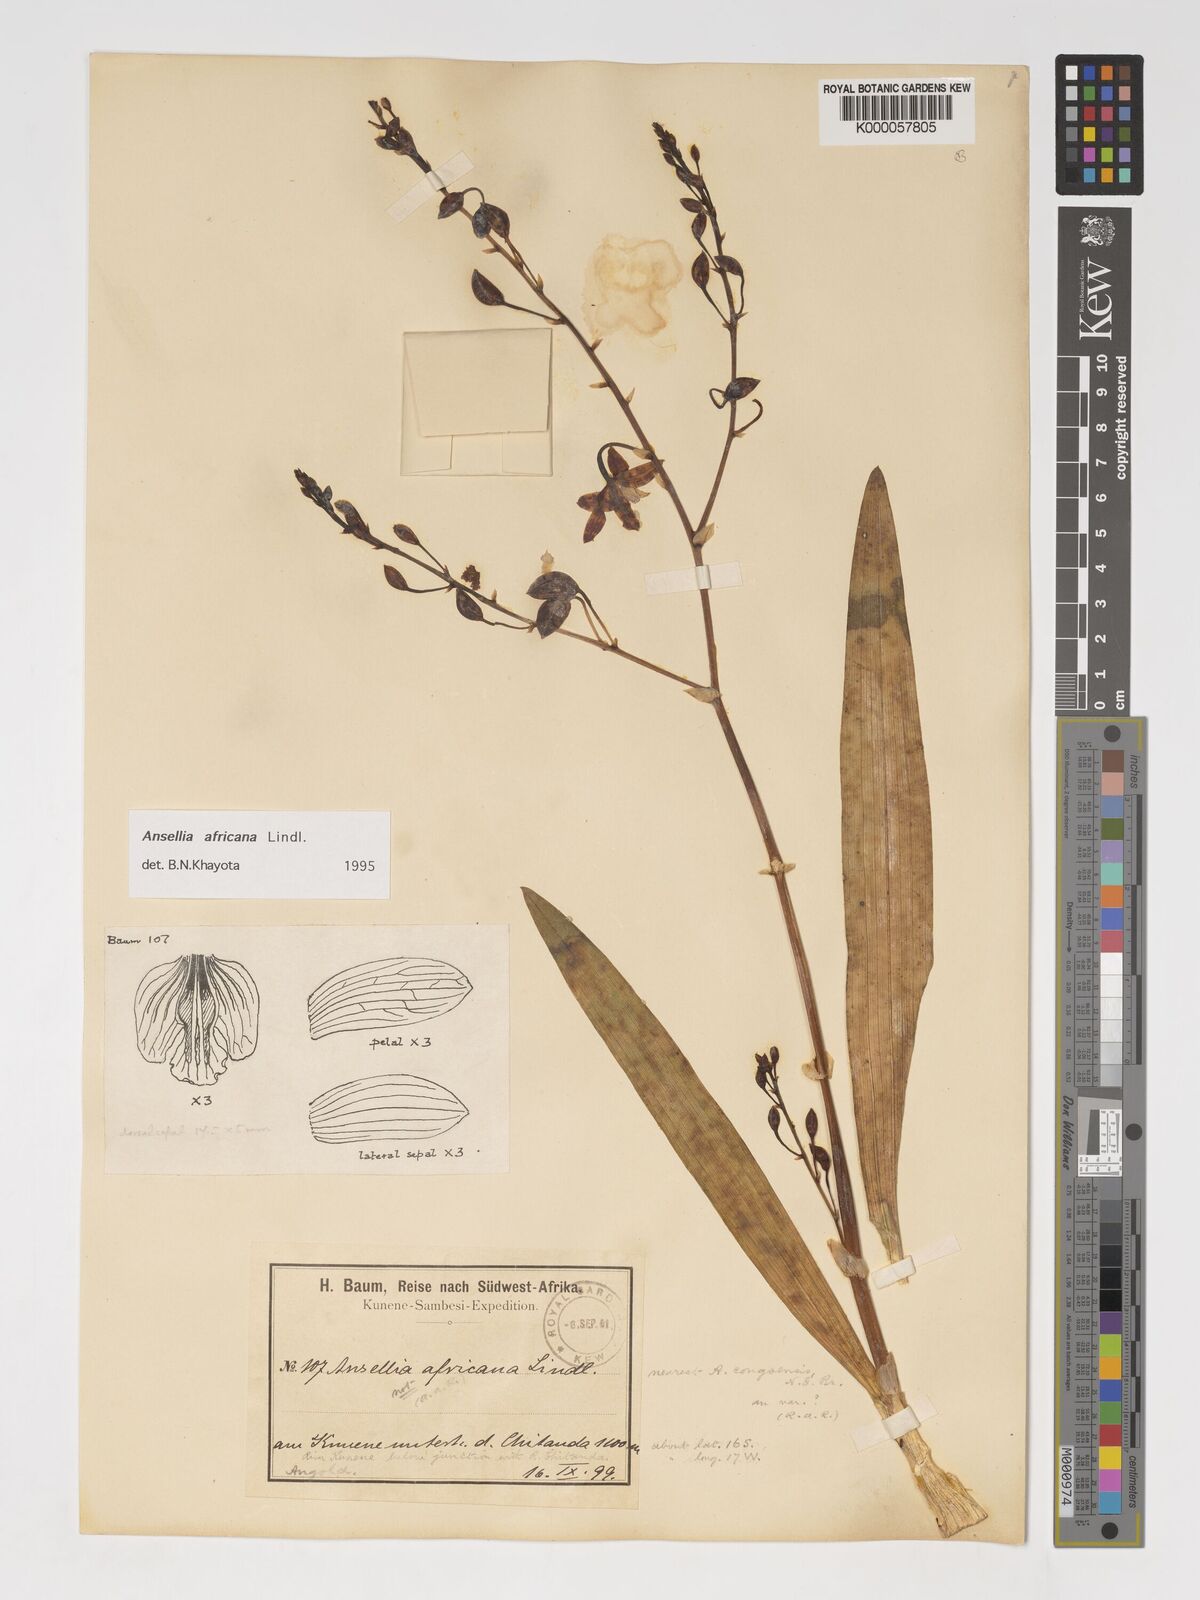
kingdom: Plantae
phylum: Tracheophyta
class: Liliopsida
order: Asparagales
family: Orchidaceae
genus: Ansellia
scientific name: Ansellia africana
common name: African ansellia
